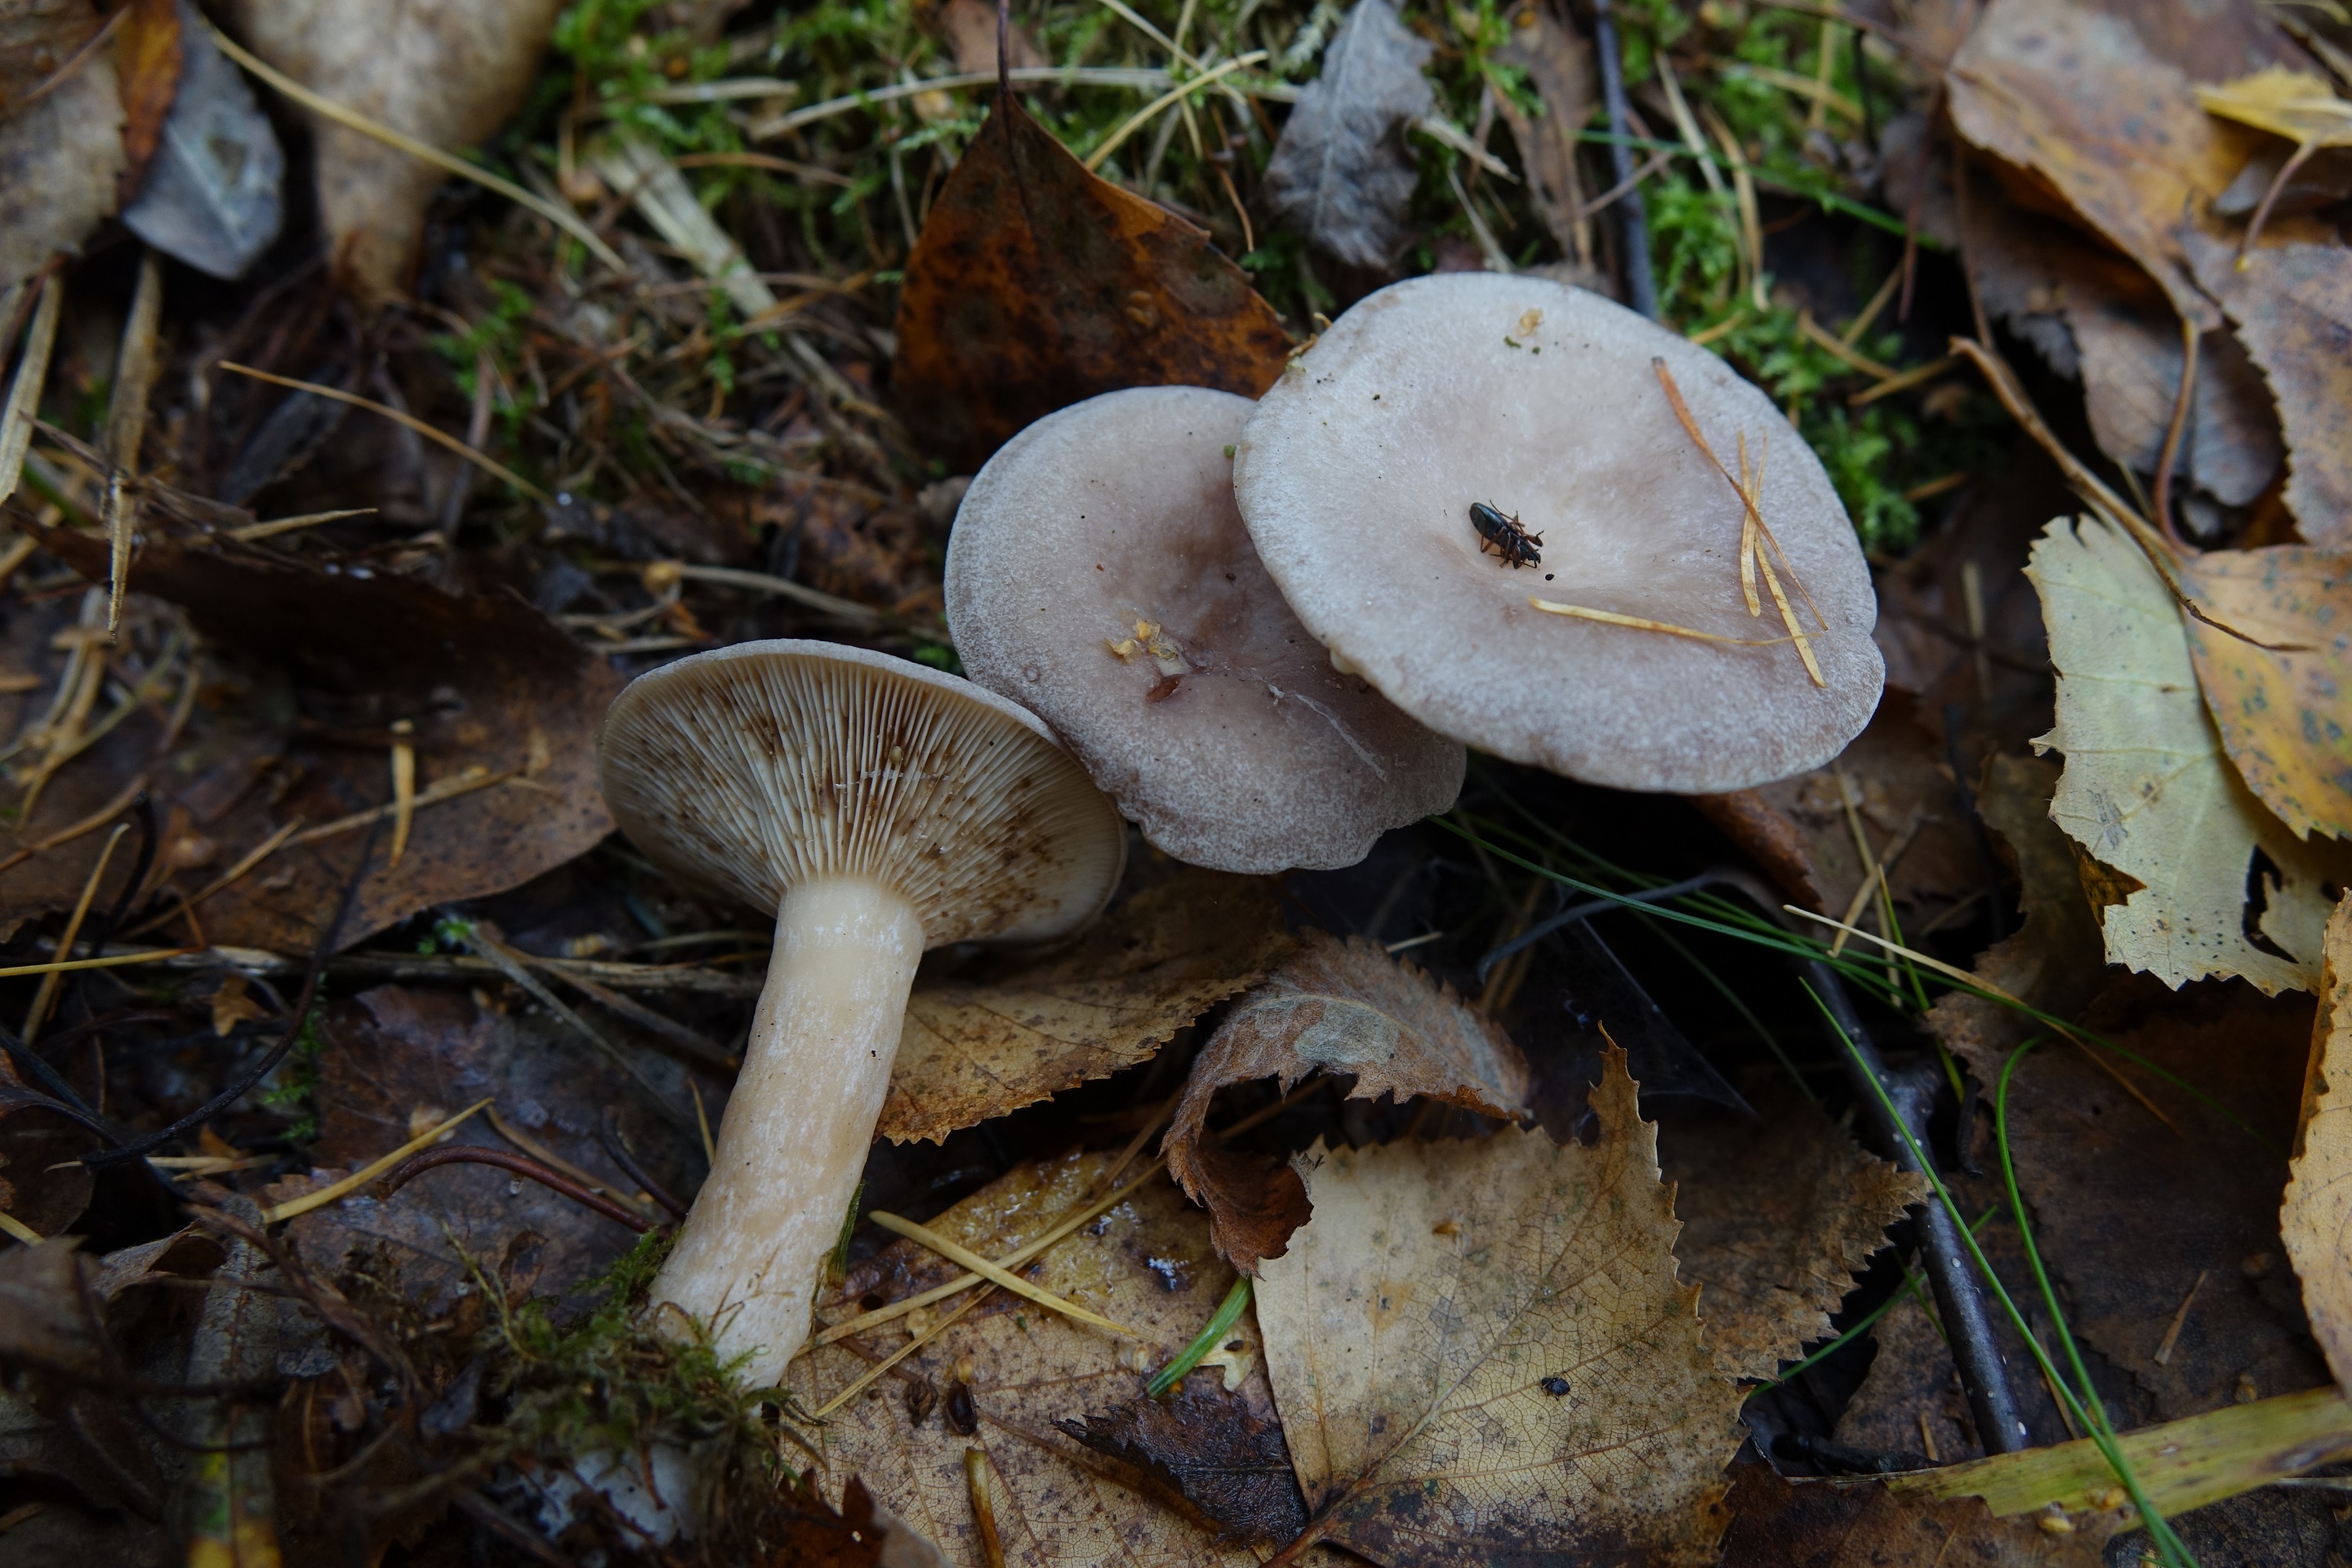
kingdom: Fungi
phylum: Basidiomycota
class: Agaricomycetes
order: Russulales
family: Russulaceae
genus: Lactarius
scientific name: Lactarius vietus
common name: Grey milk-cap
